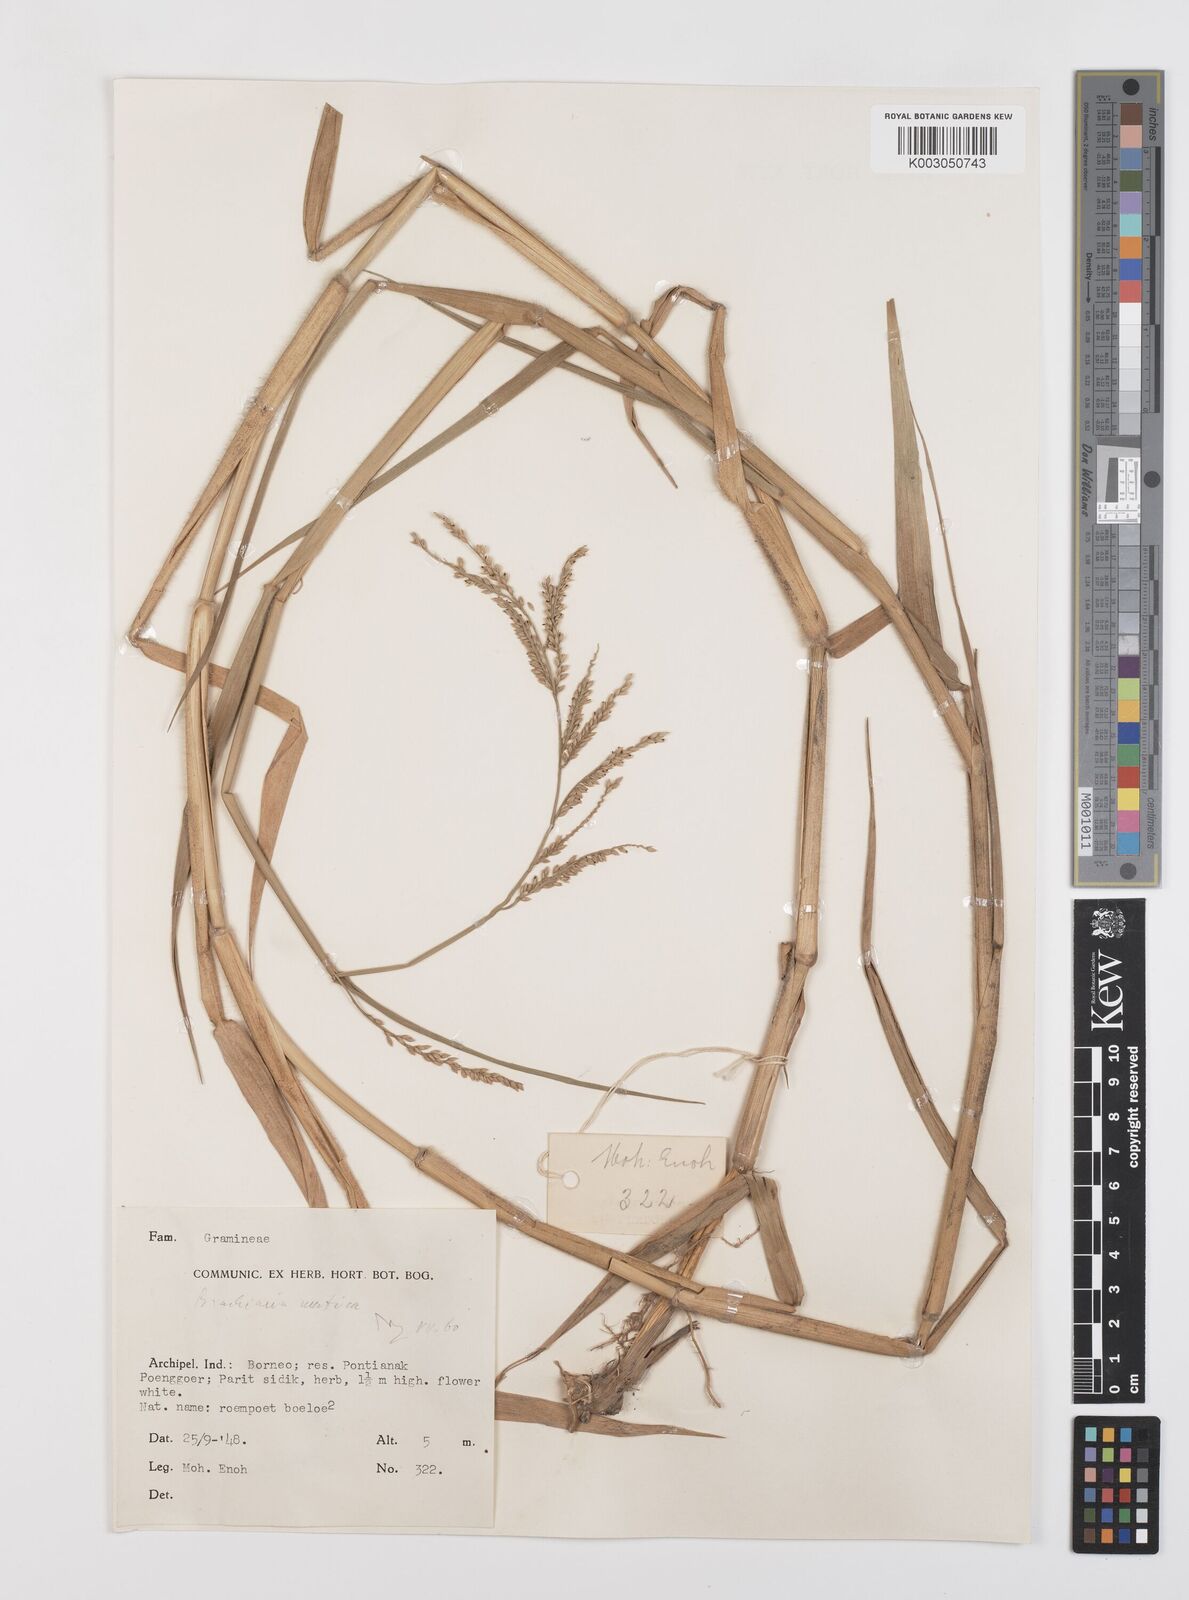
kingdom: Plantae
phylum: Tracheophyta
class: Liliopsida
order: Poales
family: Poaceae
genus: Urochloa
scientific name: Urochloa mutica
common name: Para grass
